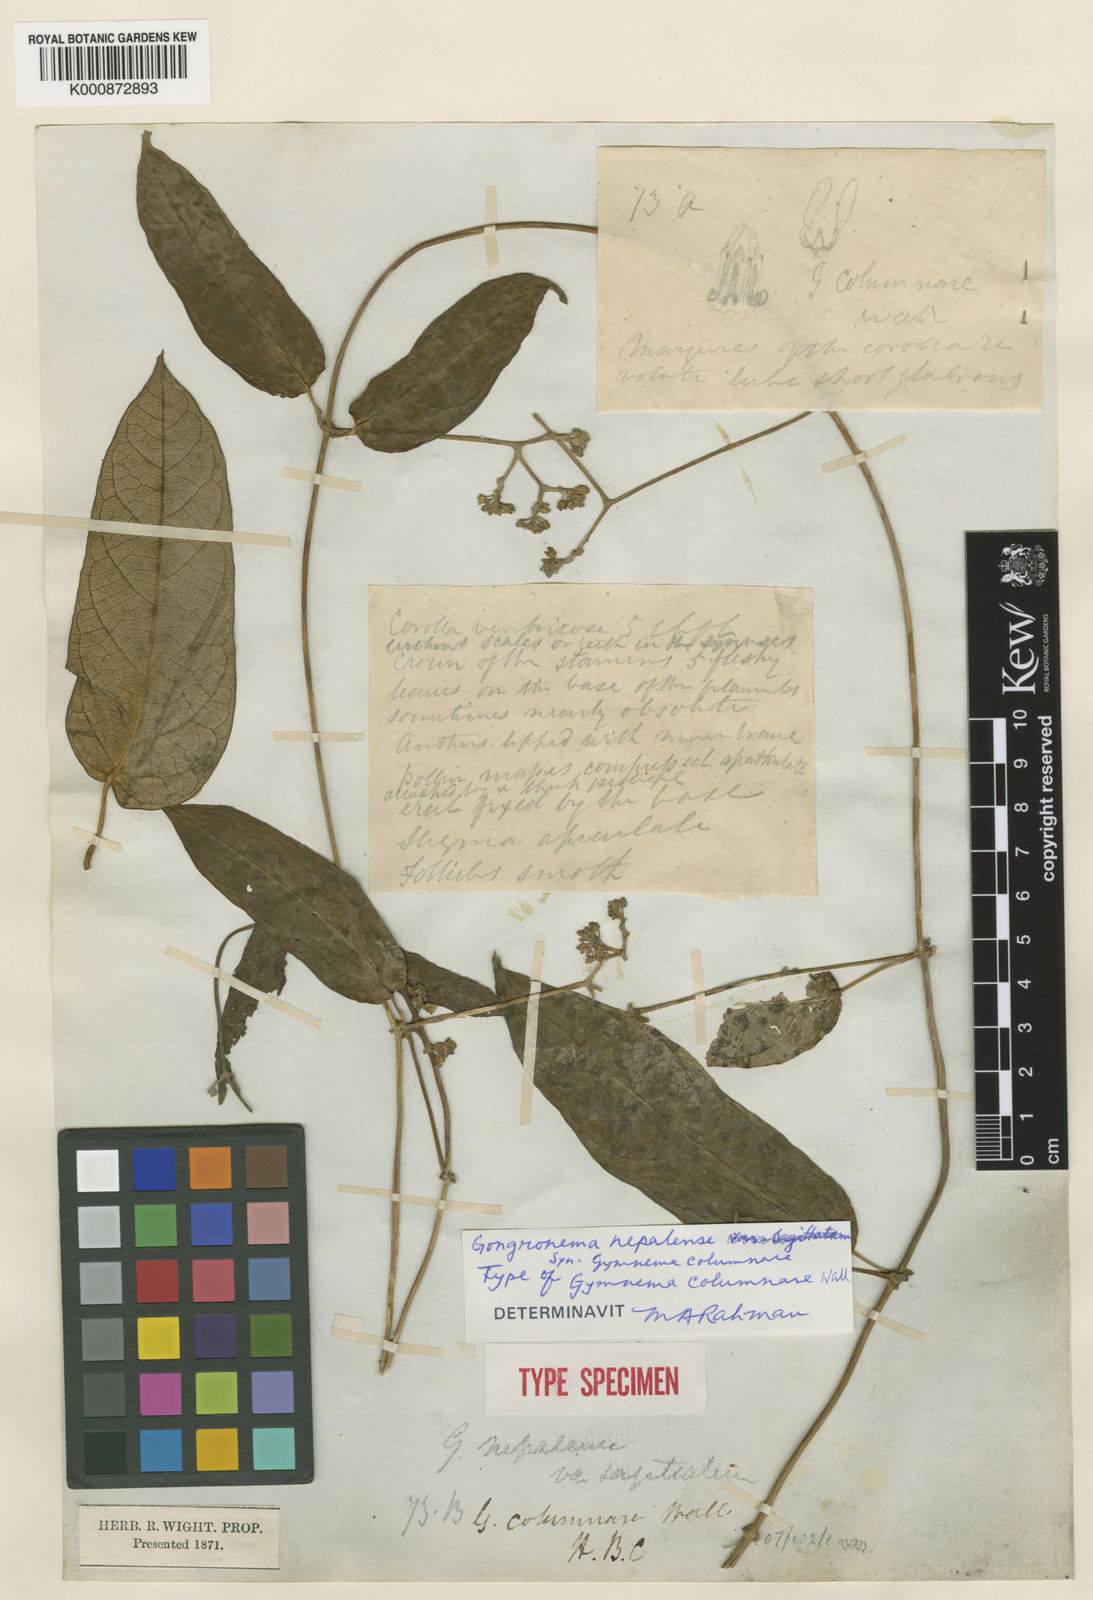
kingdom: Plantae
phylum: Tracheophyta
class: Magnoliopsida
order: Gentianales
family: Apocynaceae
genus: Gongronema
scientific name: Gongronema
